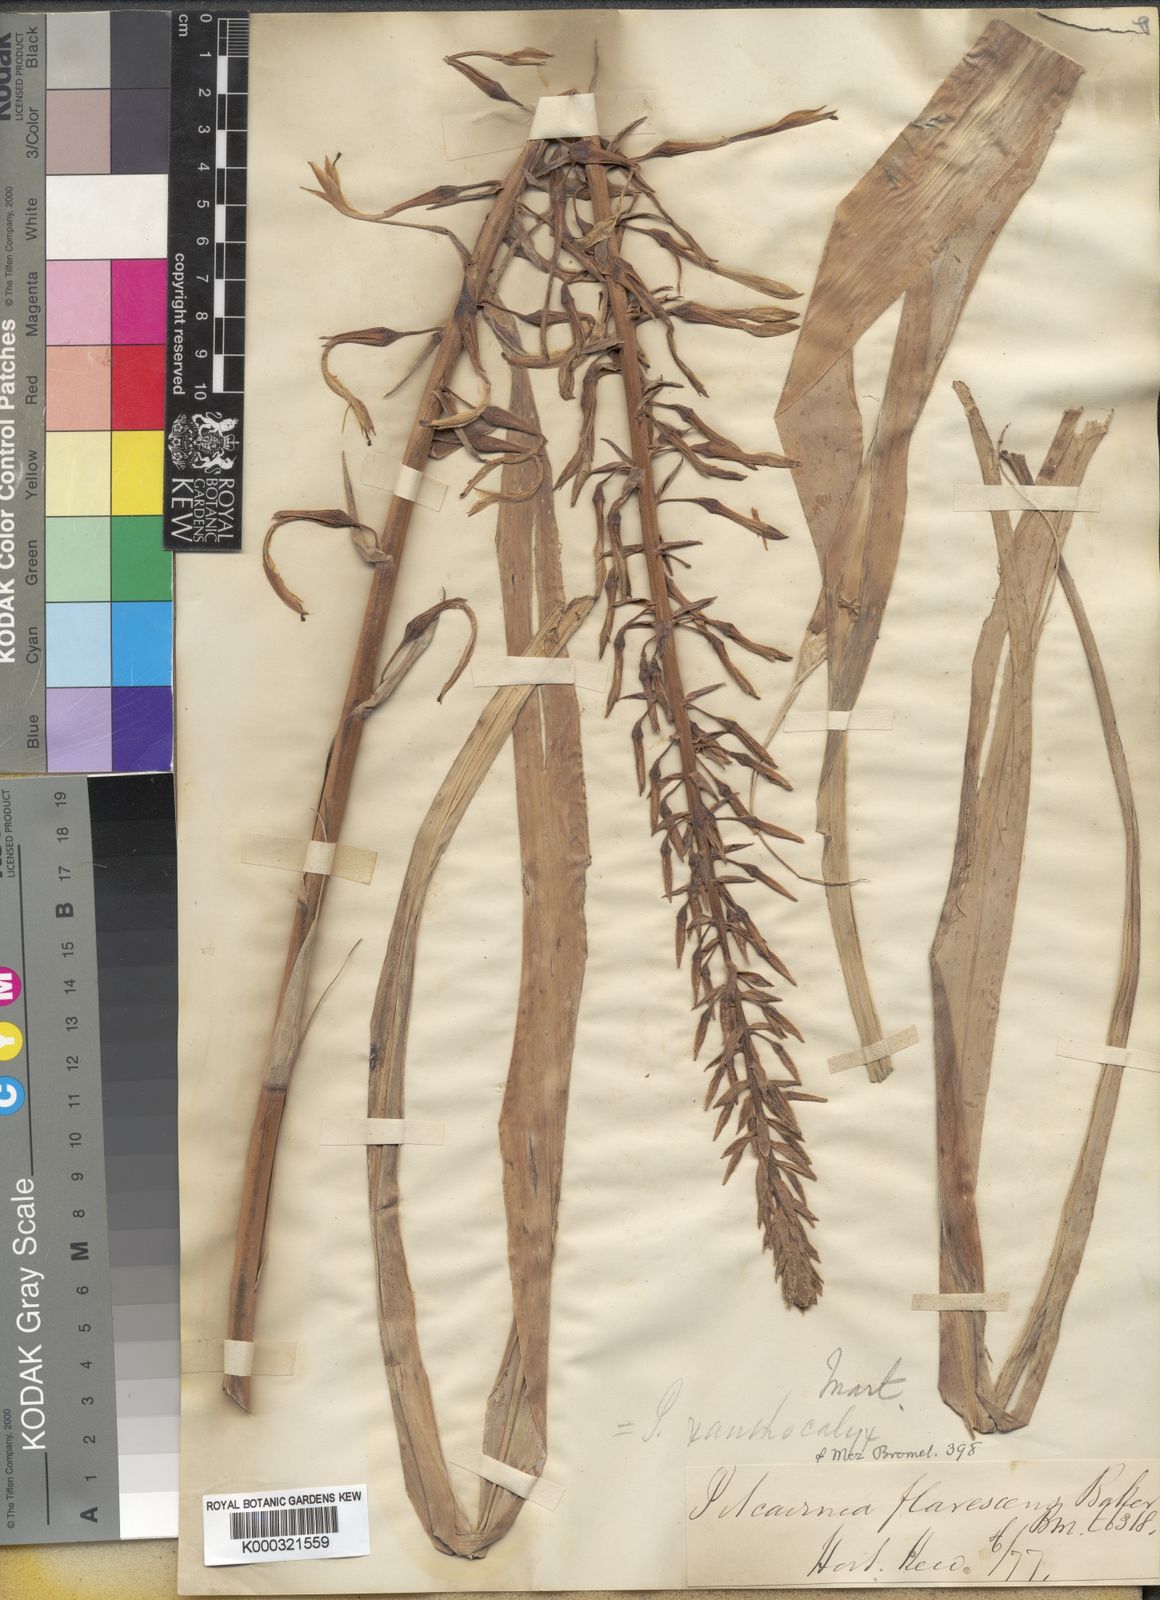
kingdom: Plantae
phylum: Tracheophyta
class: Liliopsida
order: Poales
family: Bromeliaceae
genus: Pitcairnia
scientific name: Pitcairnia xanthocalyx
